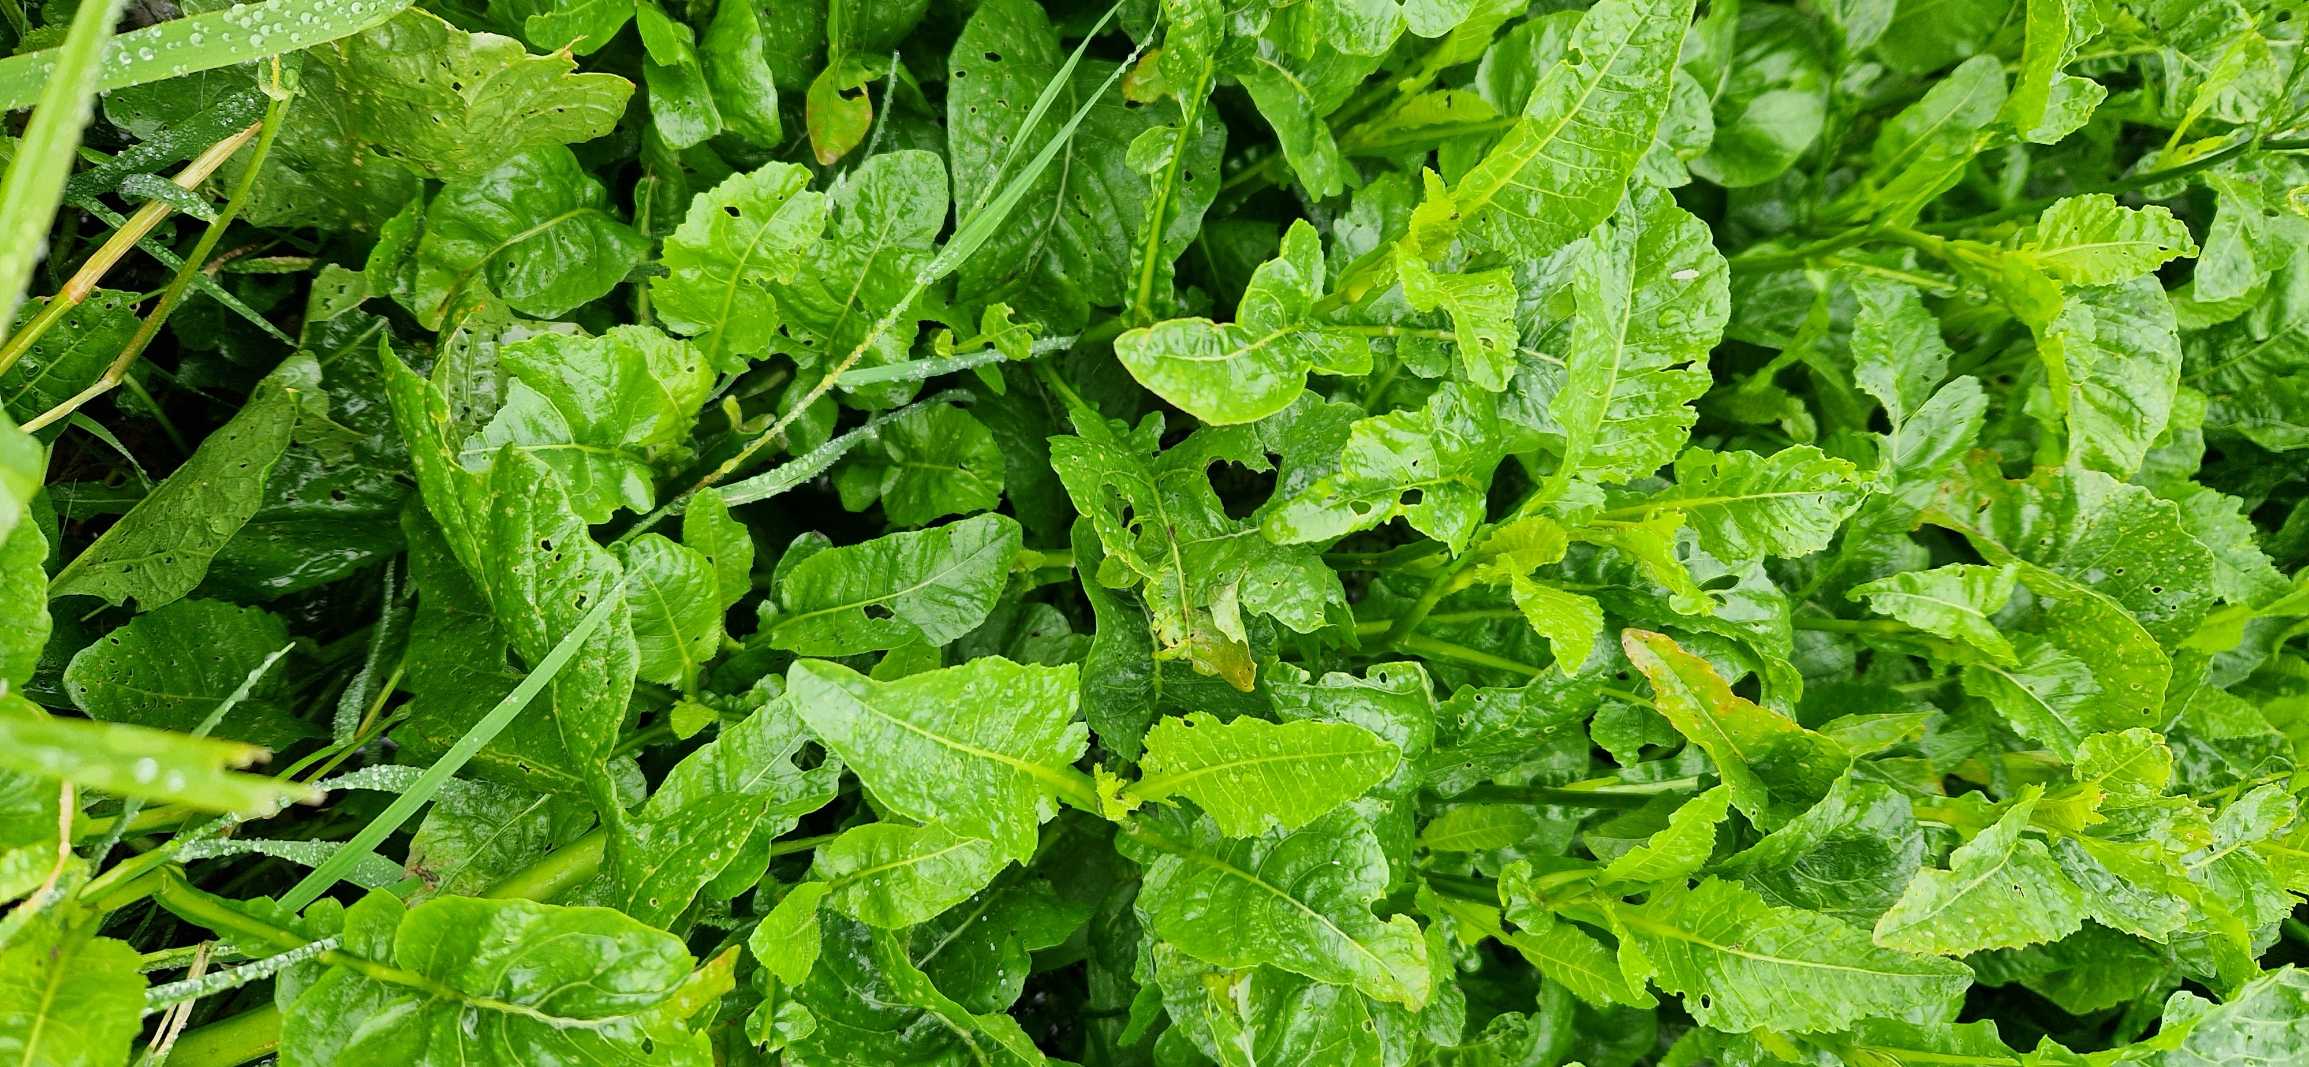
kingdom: Plantae
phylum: Tracheophyta
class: Magnoliopsida
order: Brassicales
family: Brassicaceae
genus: Rorippa
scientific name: Rorippa amphibia
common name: Vandpeberrod
